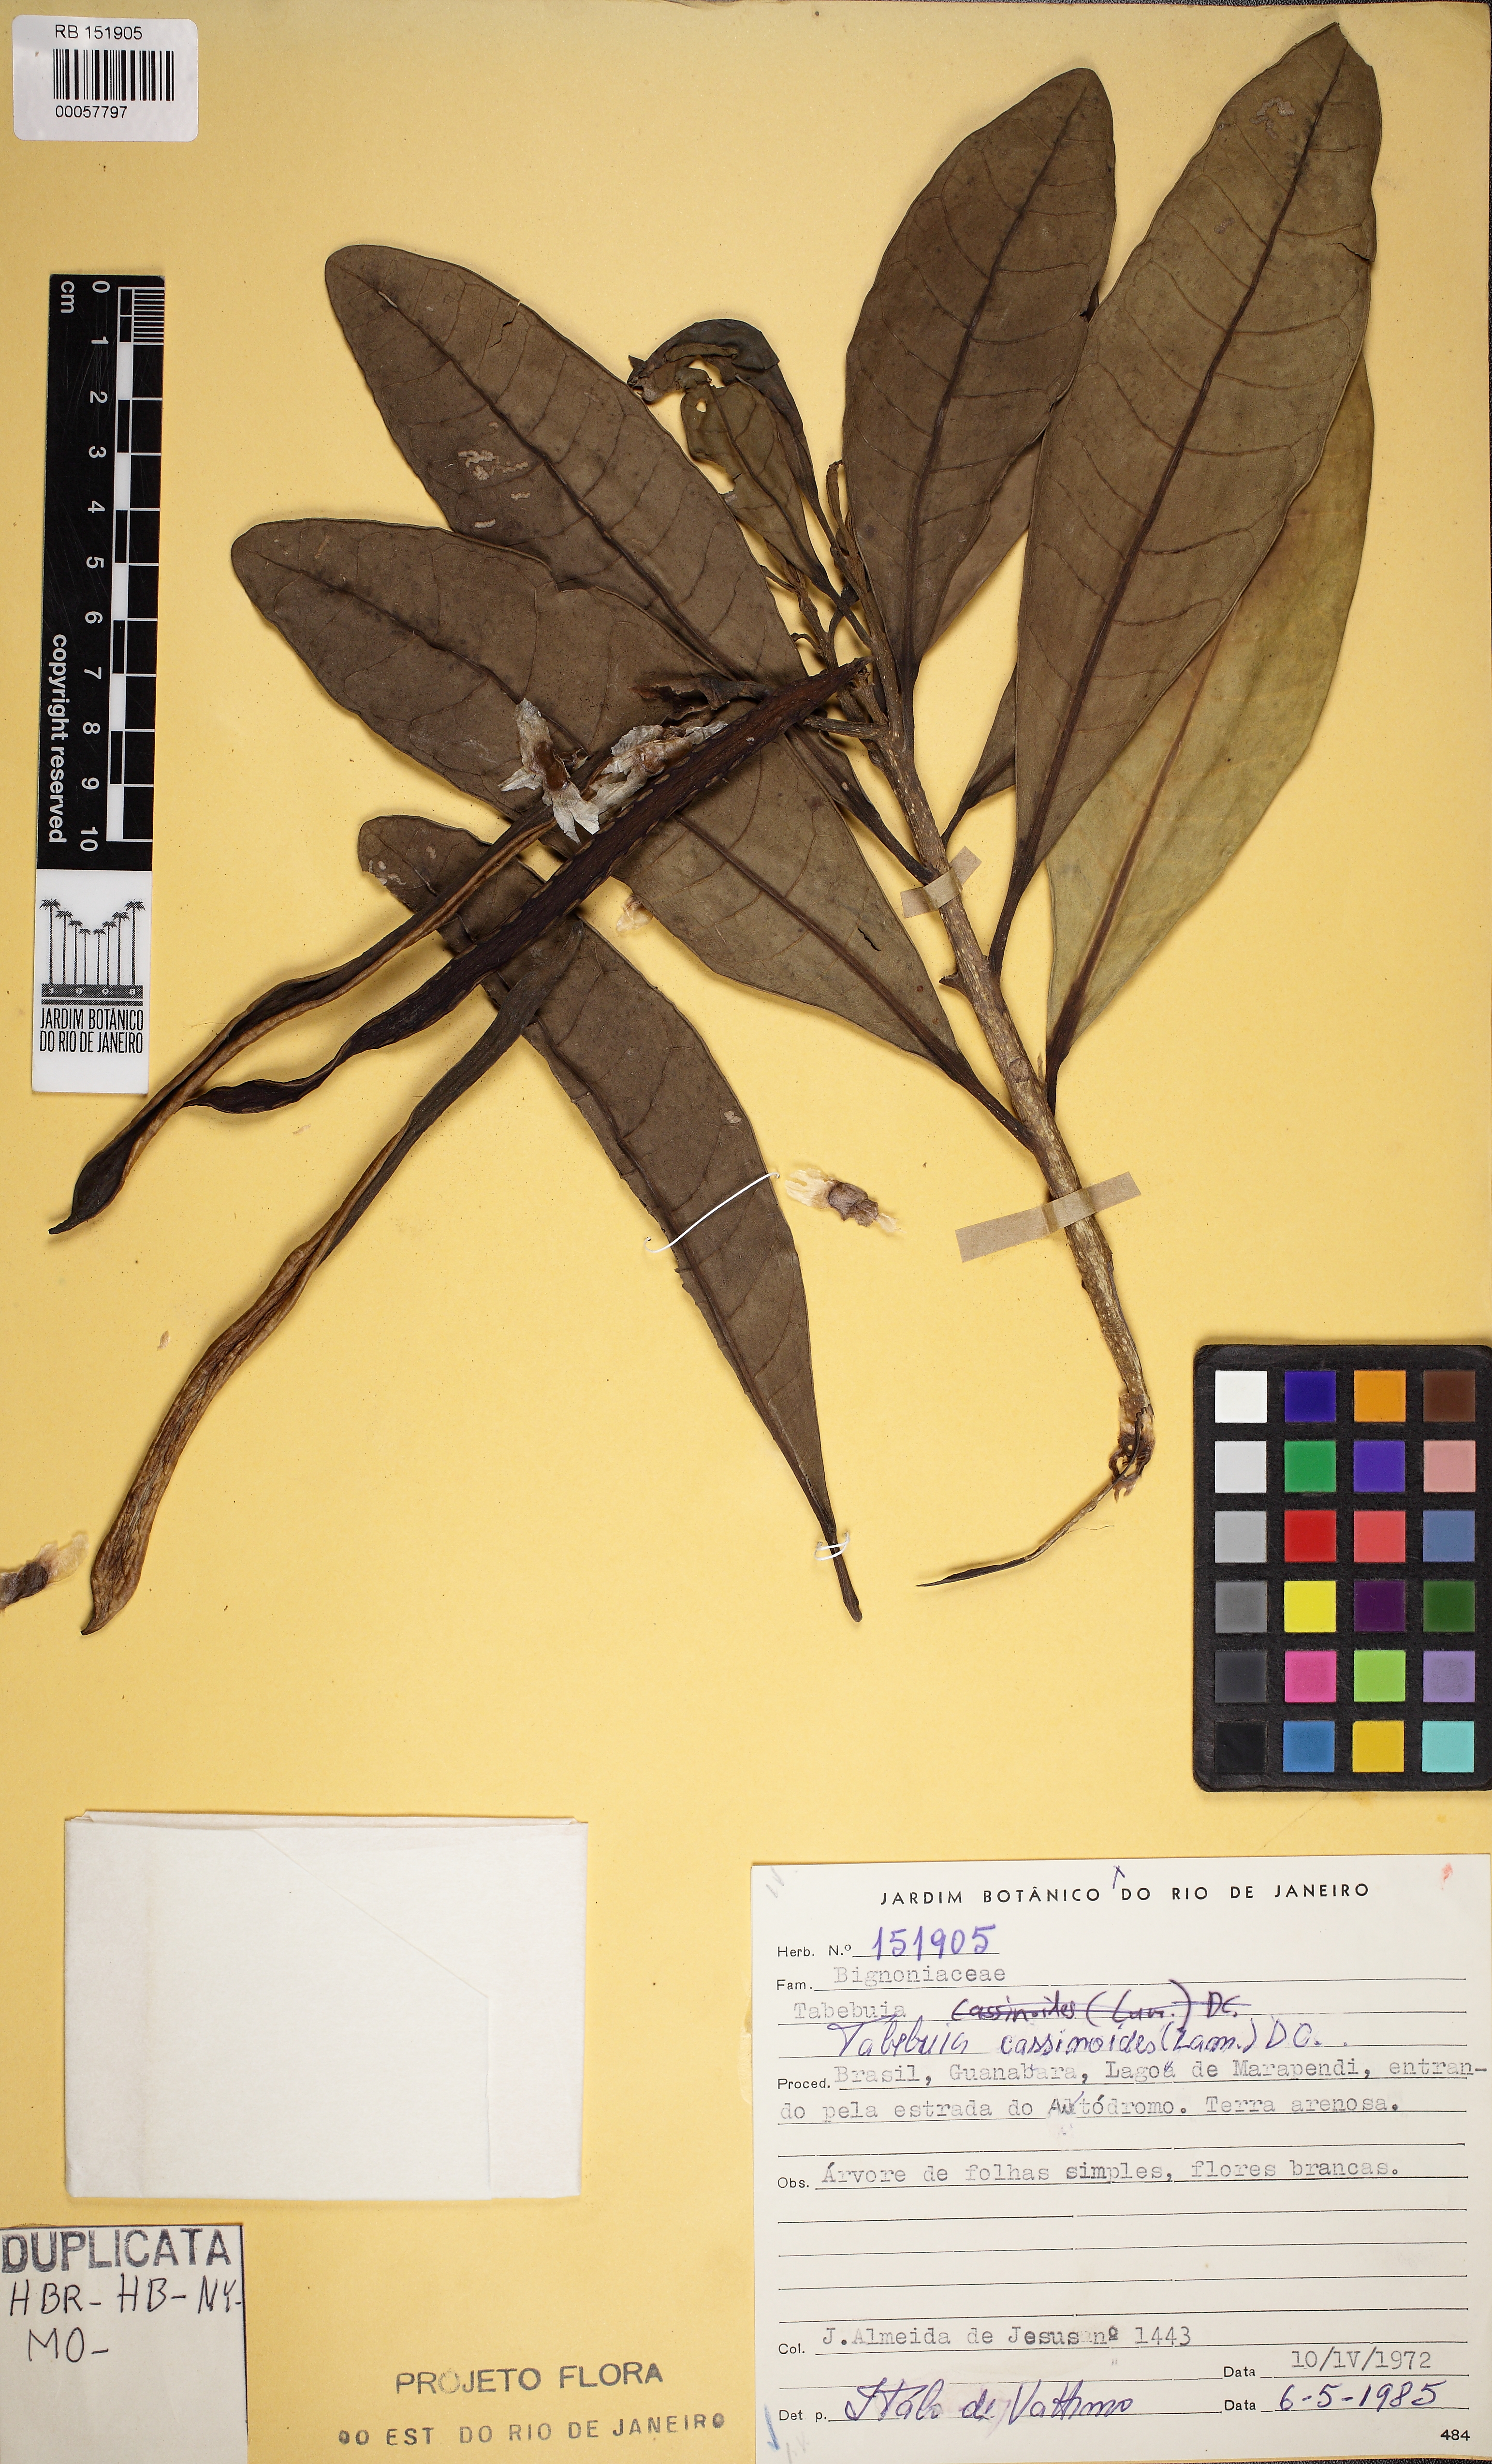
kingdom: Plantae
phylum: Tracheophyta
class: Magnoliopsida
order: Lamiales
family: Bignoniaceae
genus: Tabebuia
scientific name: Tabebuia cassinoides
